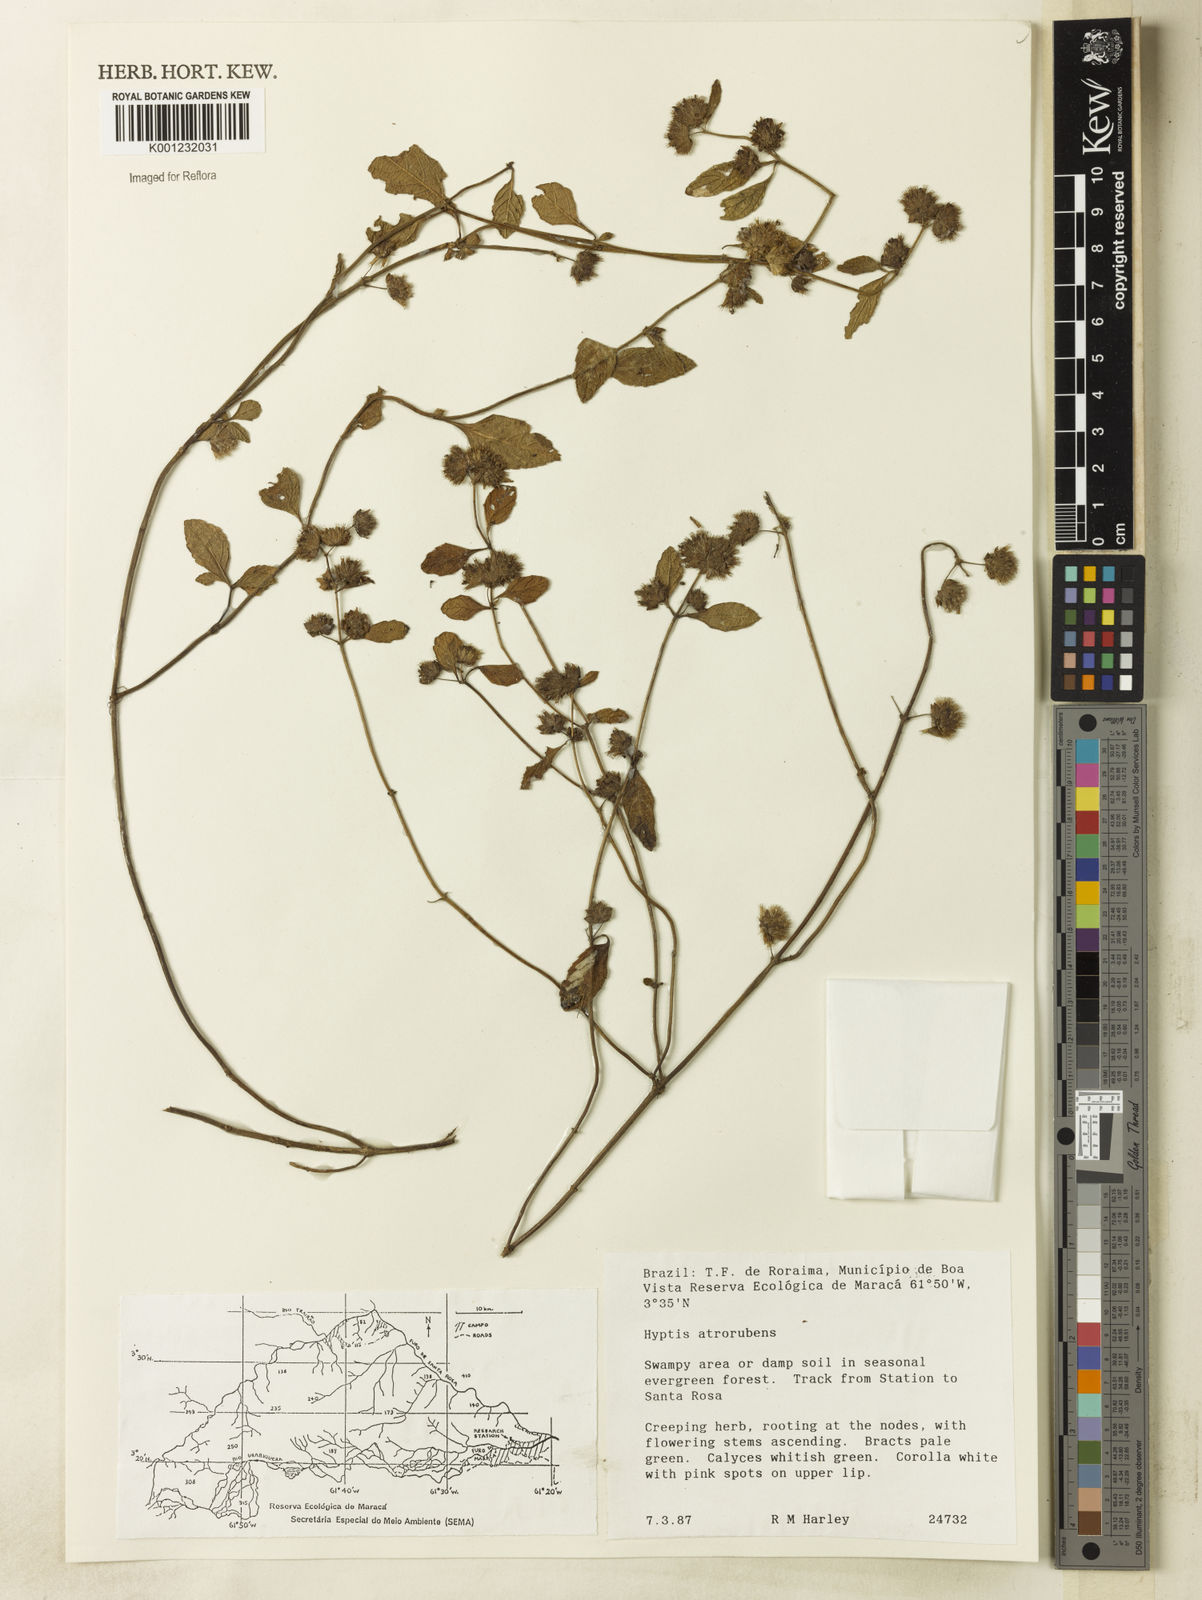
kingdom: Plantae
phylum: Tracheophyta
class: Magnoliopsida
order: Lamiales
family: Lamiaceae
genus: Hyptis
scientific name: Hyptis atrorubens
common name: Lanmant
